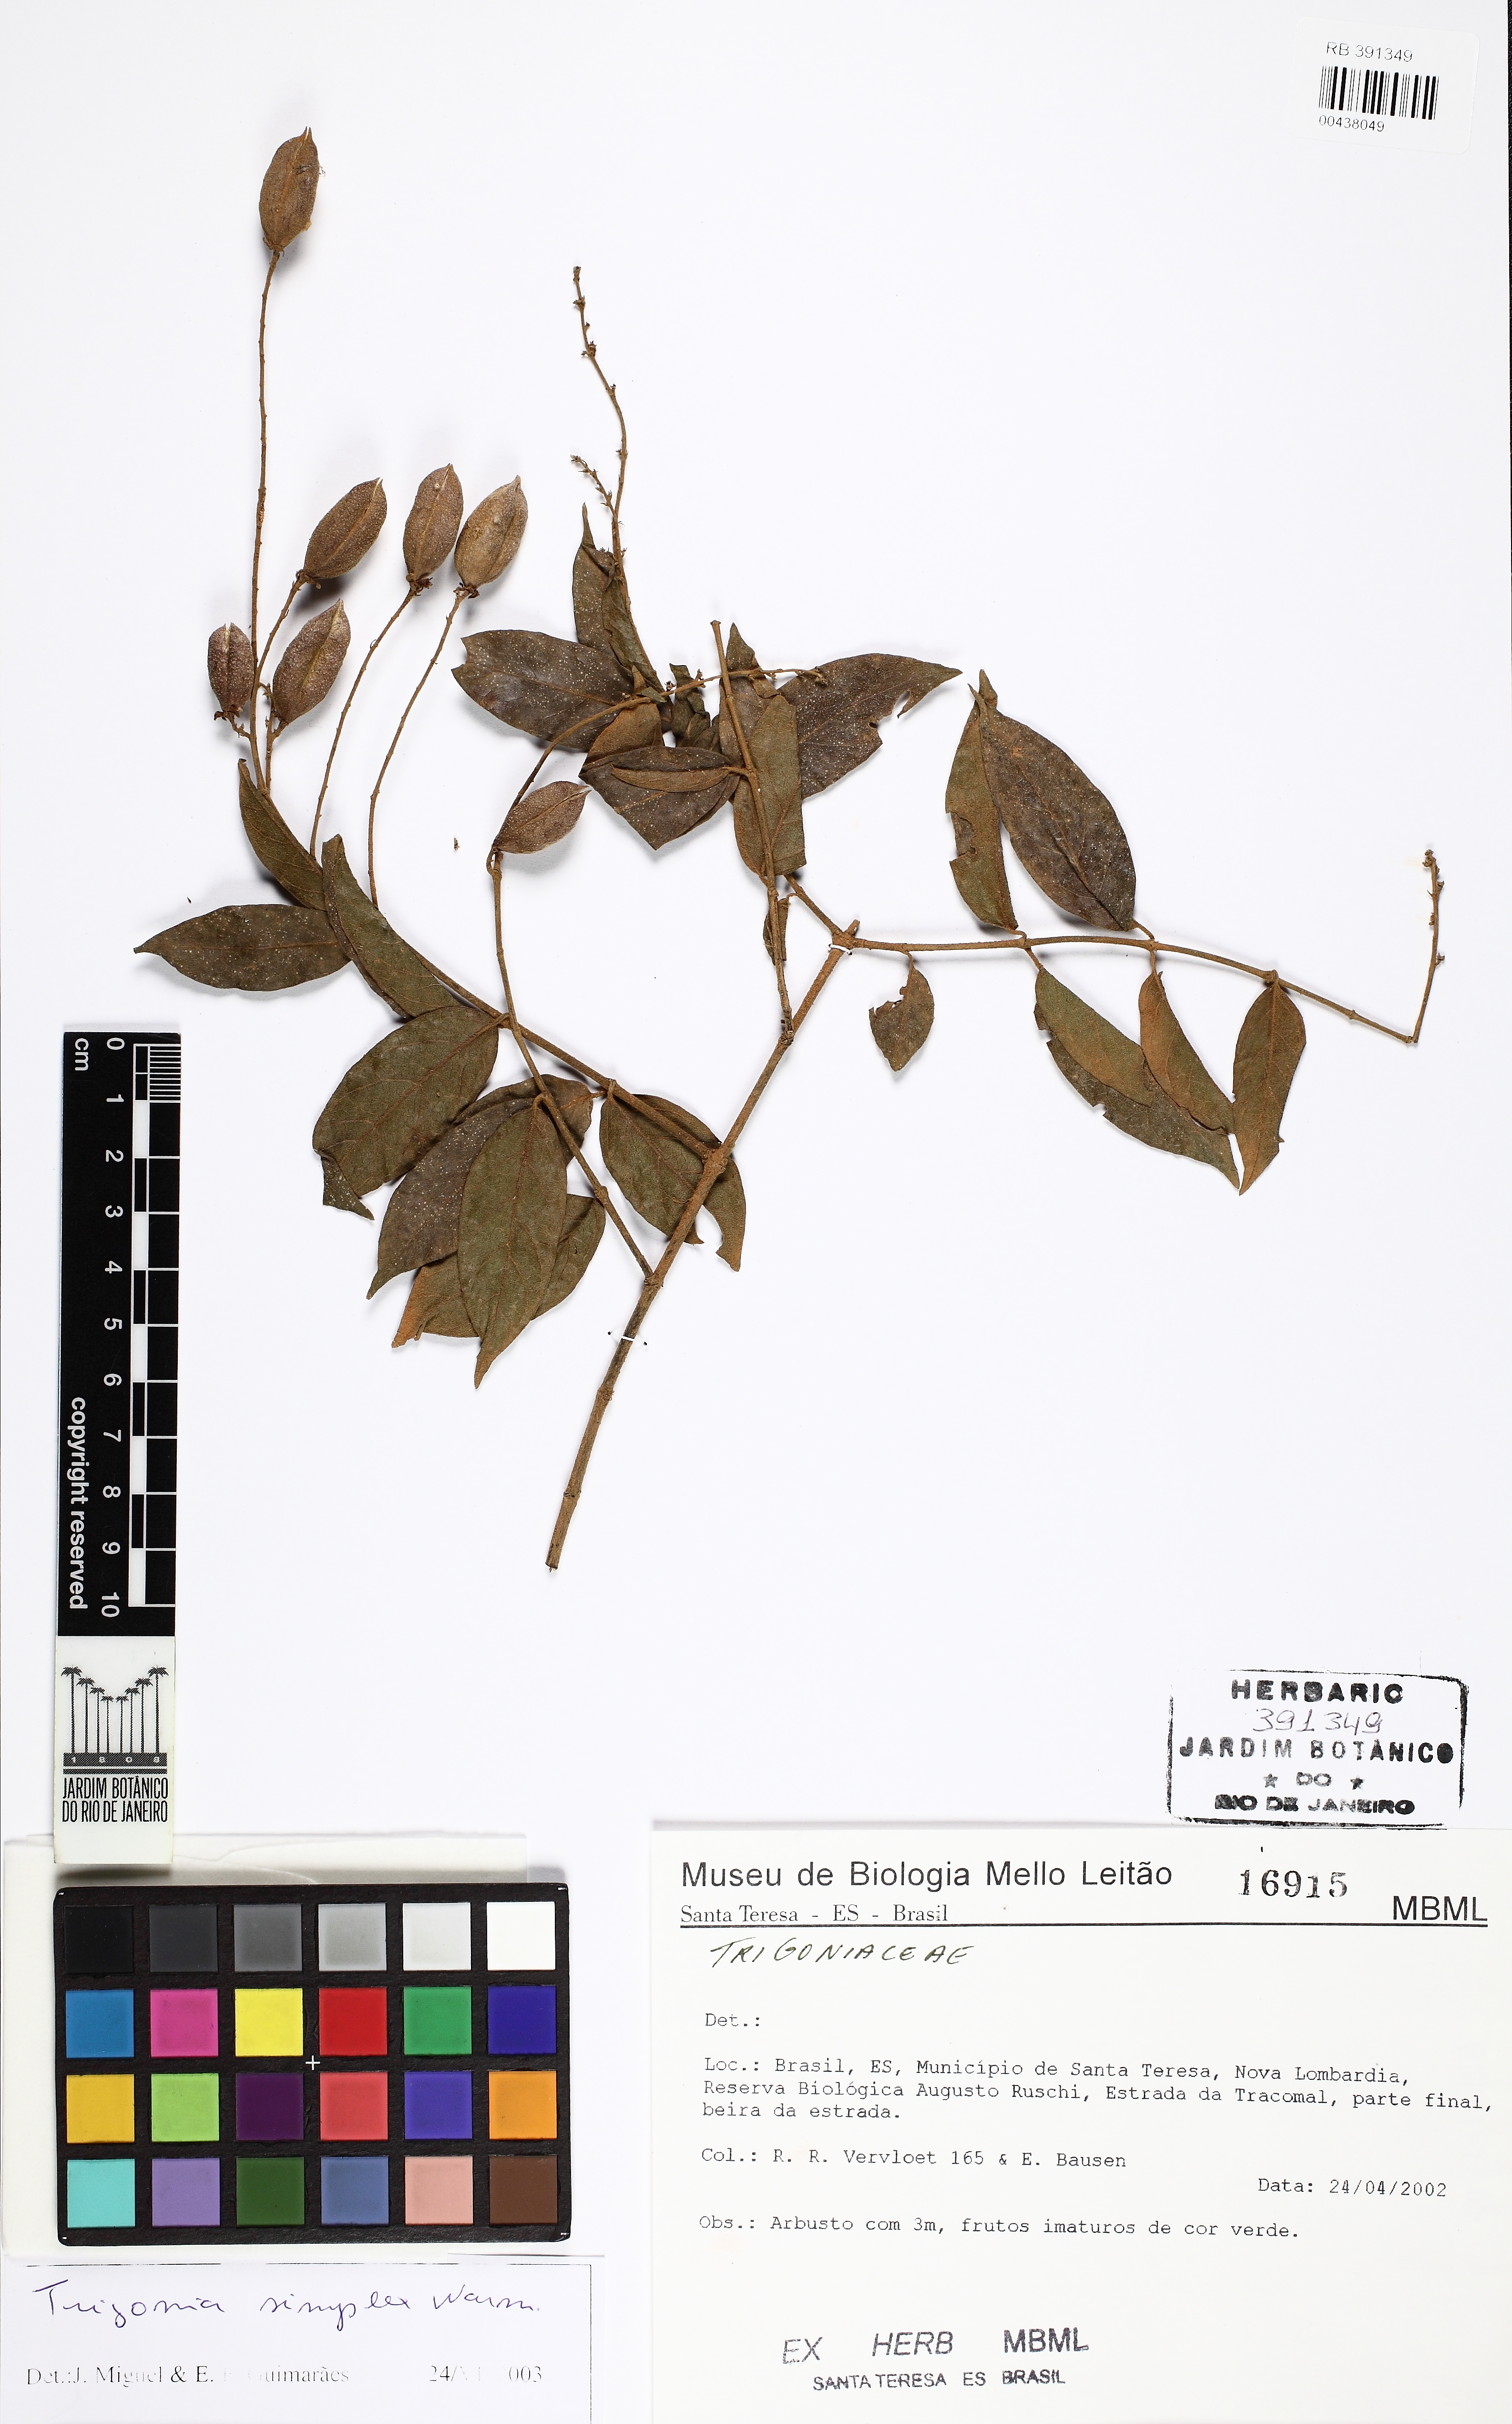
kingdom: Plantae
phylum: Tracheophyta
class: Magnoliopsida
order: Malpighiales
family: Trigoniaceae
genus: Trigonia
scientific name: Trigonia eriosperma
